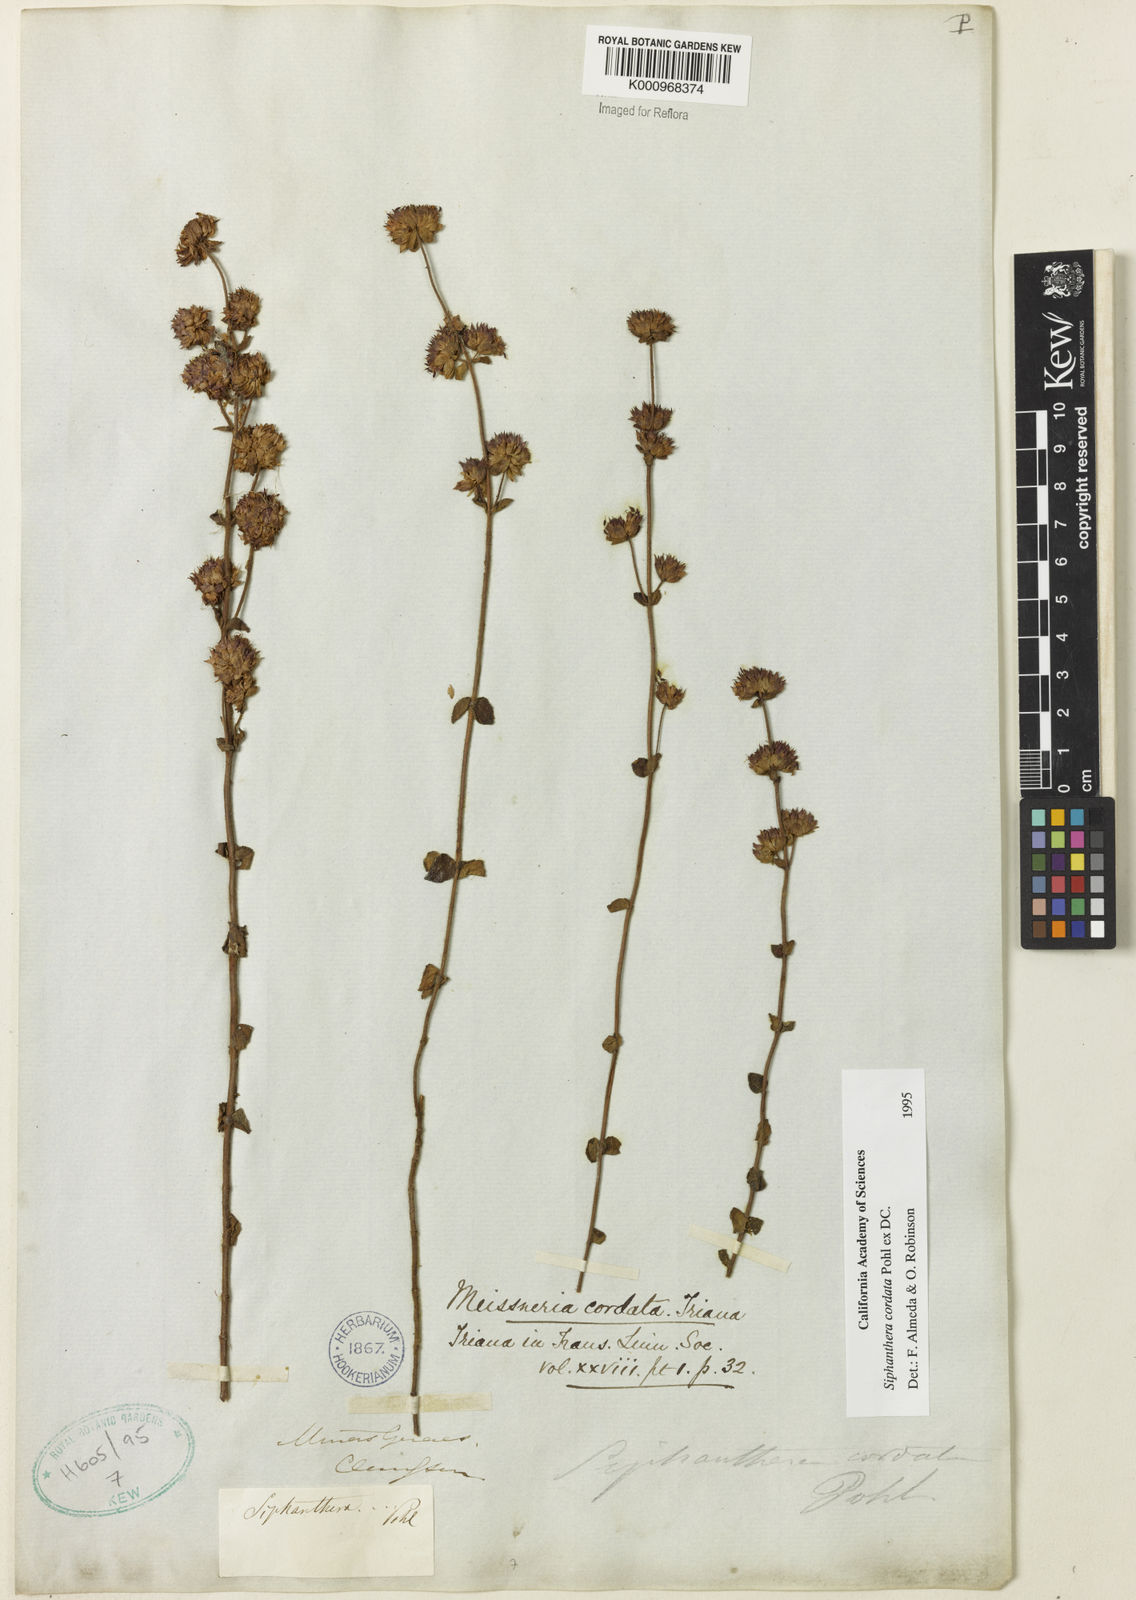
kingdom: Plantae
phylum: Tracheophyta
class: Magnoliopsida
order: Myrtales
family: Melastomataceae
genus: Siphanthera
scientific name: Siphanthera
